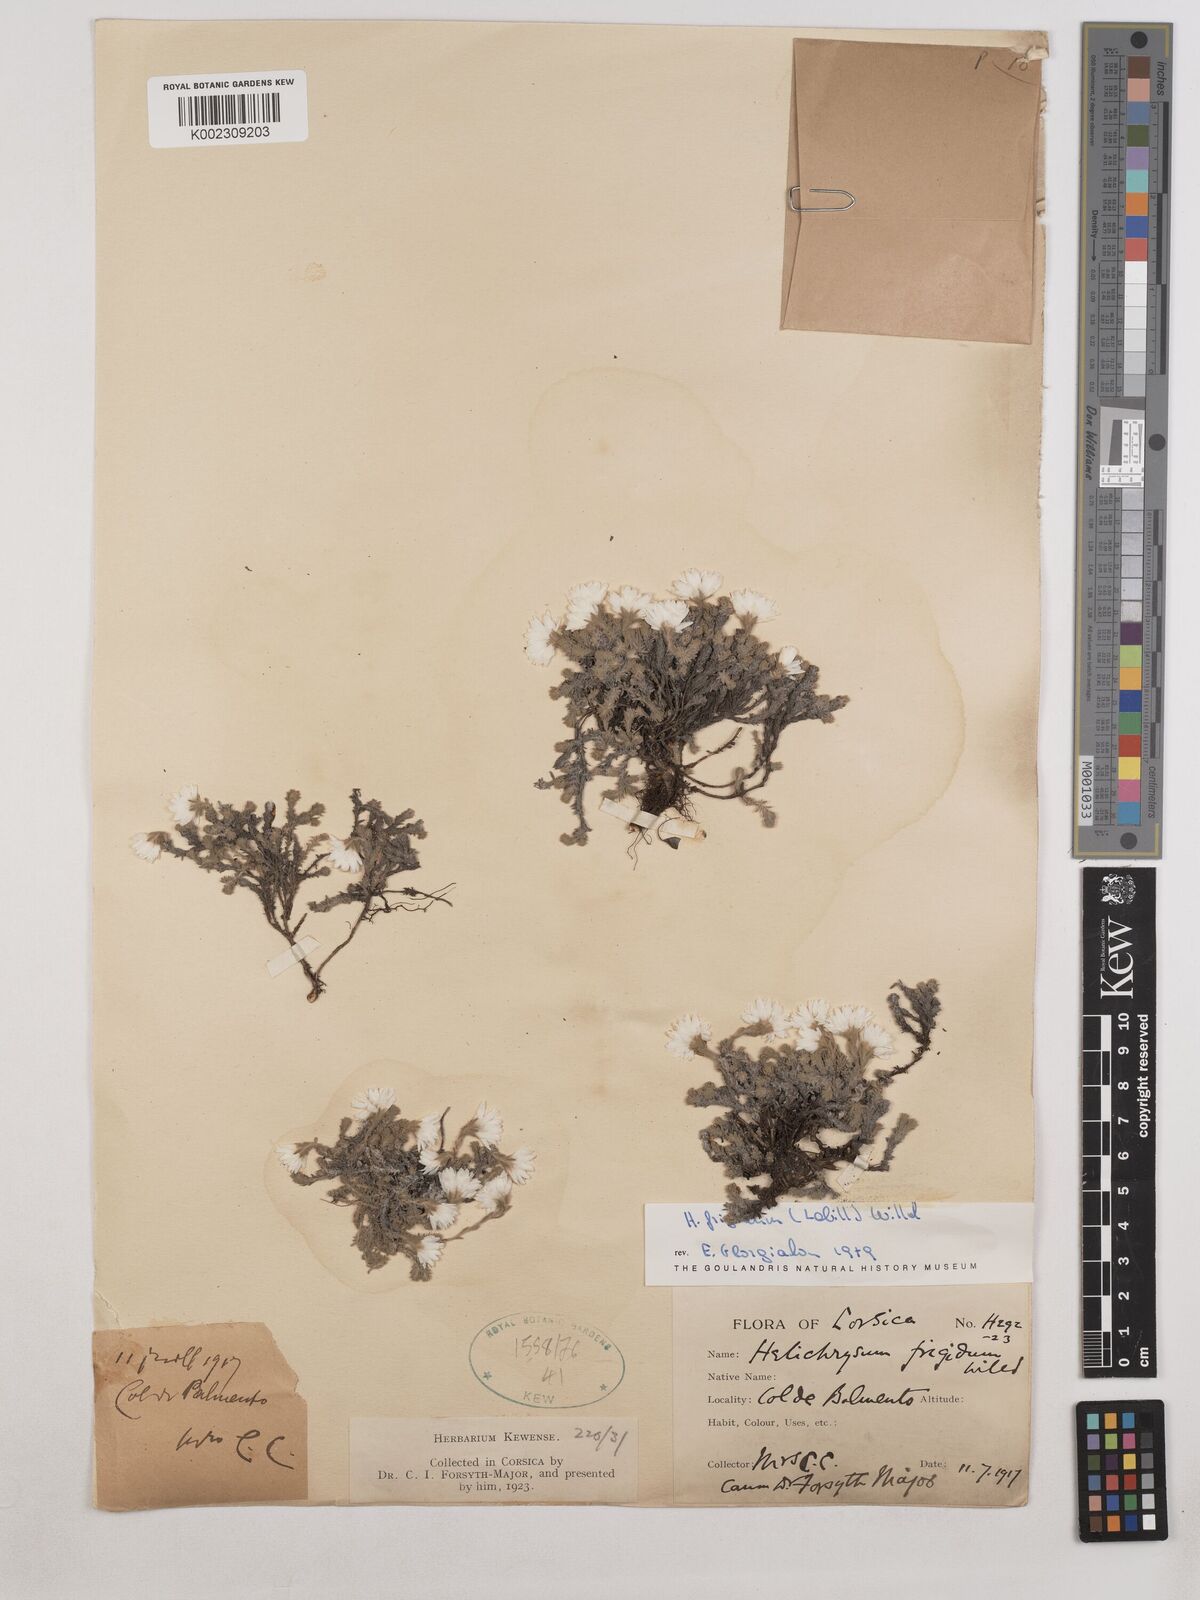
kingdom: Plantae
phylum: Tracheophyta
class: Magnoliopsida
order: Asterales
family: Asteraceae
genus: Castroviejoa
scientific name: Castroviejoa frigida
